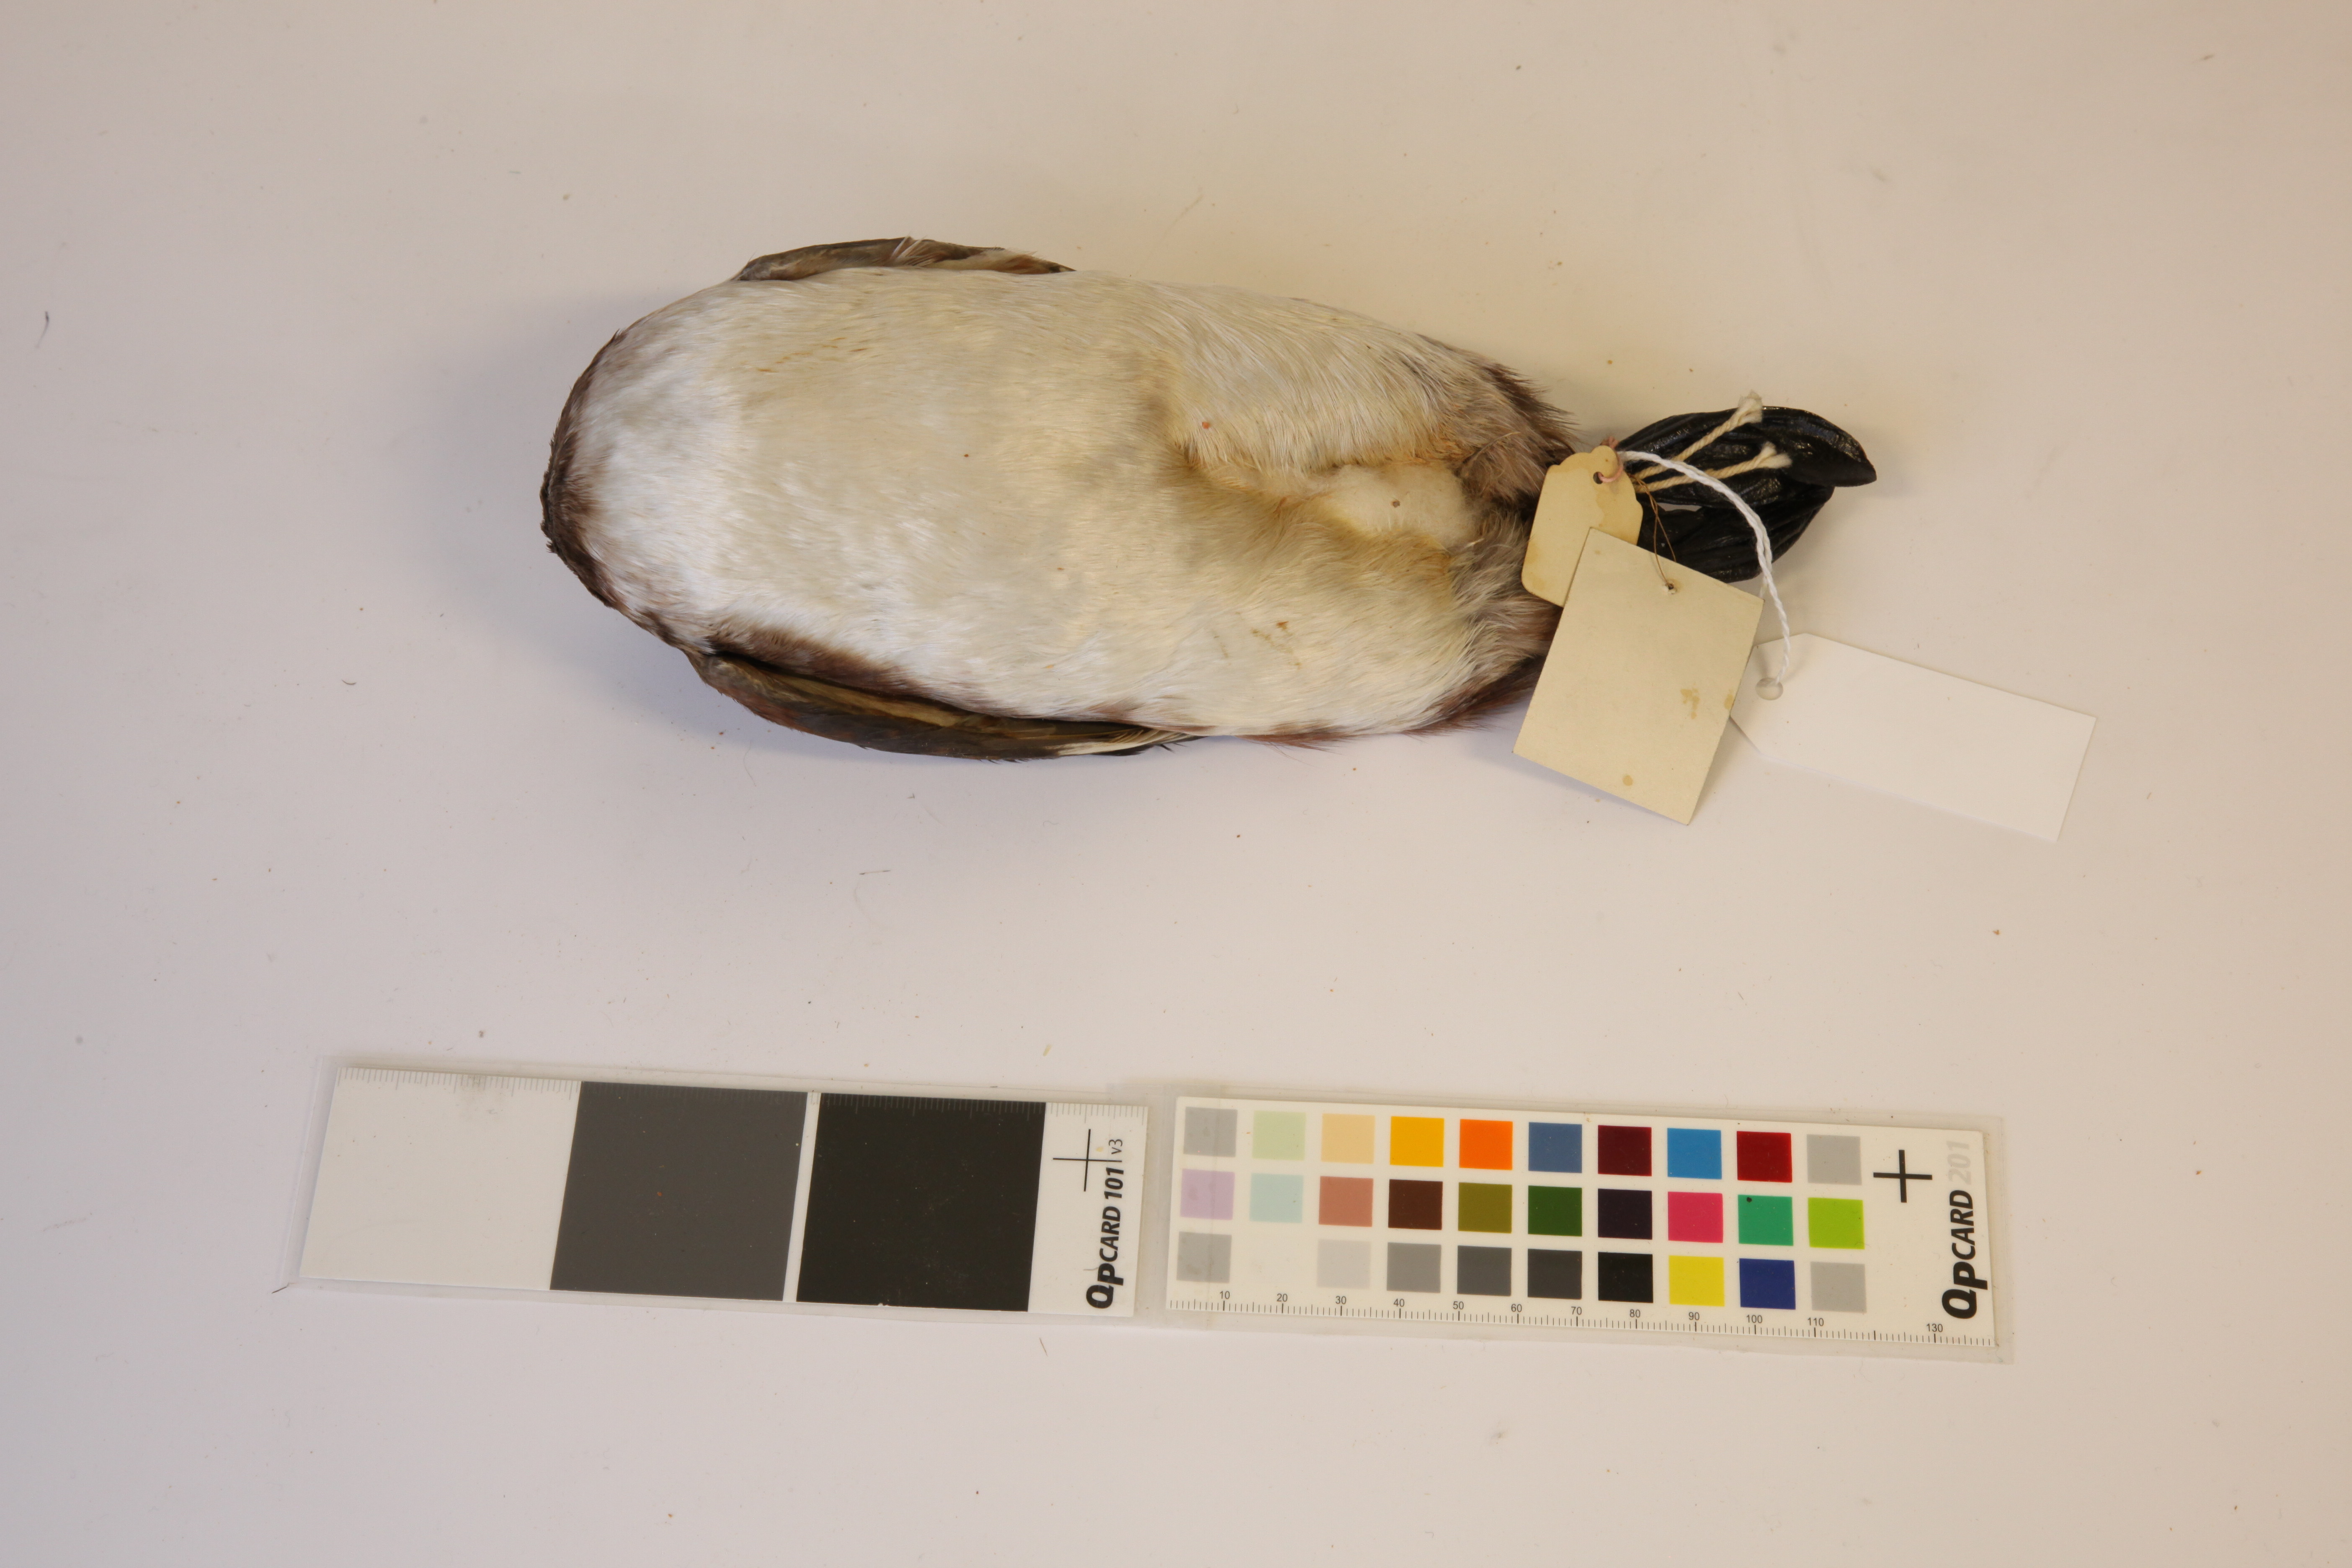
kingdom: Animalia
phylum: Chordata
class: Aves
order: Podicipediformes
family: Podicipedidae
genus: Podiceps
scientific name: Podiceps nigricollis
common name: Black-necked grebe
